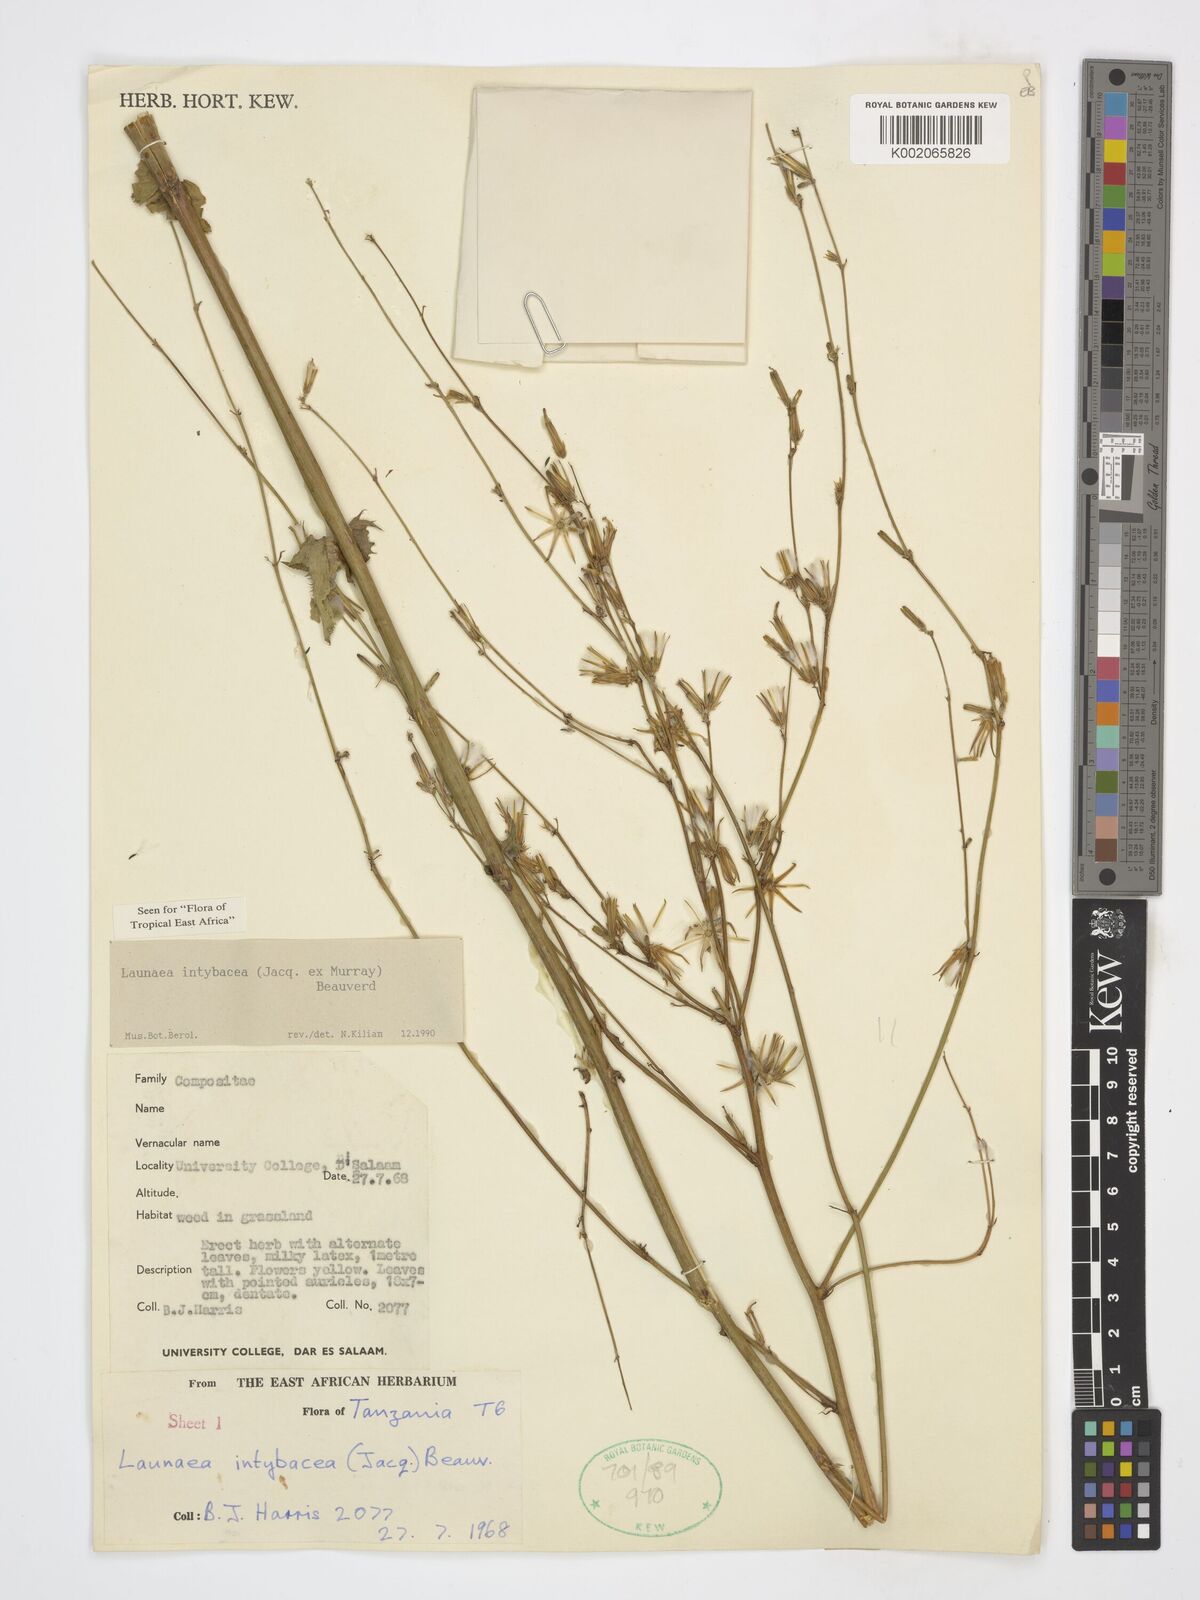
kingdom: Plantae
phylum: Tracheophyta
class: Magnoliopsida
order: Asterales
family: Asteraceae
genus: Launaea
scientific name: Launaea intybacea
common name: Achicoria azul
